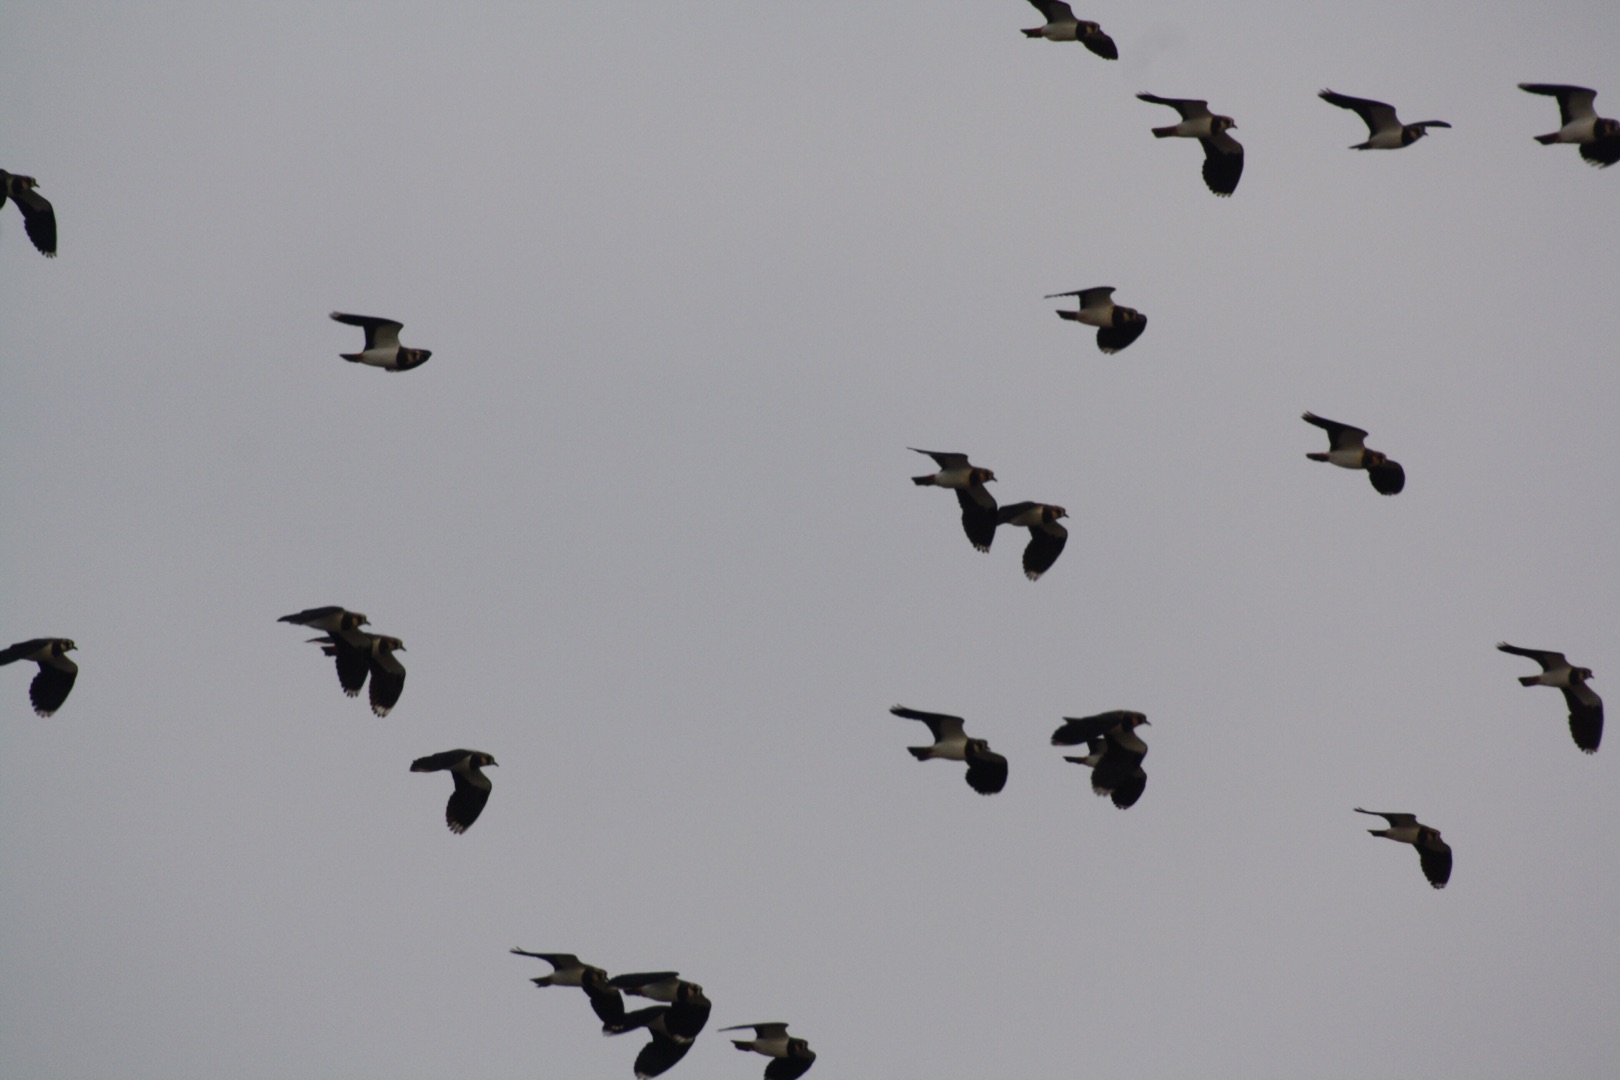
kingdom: Animalia
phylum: Chordata
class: Aves
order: Charadriiformes
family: Charadriidae
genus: Vanellus
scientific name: Vanellus vanellus
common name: Vibe
